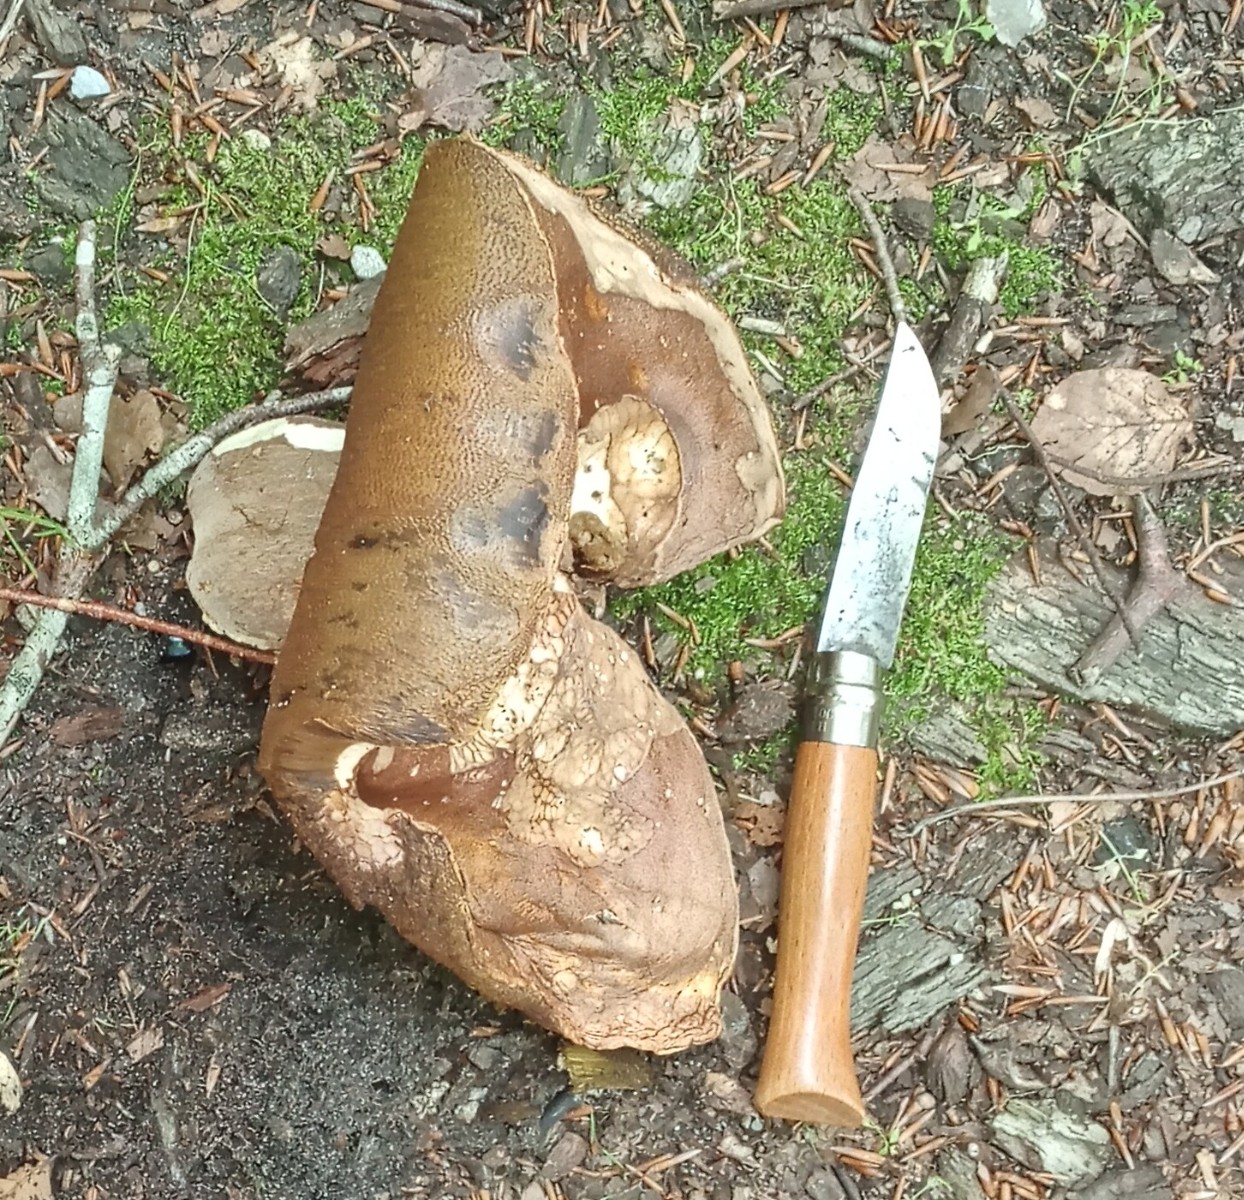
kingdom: Fungi
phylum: Basidiomycota
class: Agaricomycetes
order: Boletales
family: Boletaceae
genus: Boletus
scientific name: Boletus edulis
